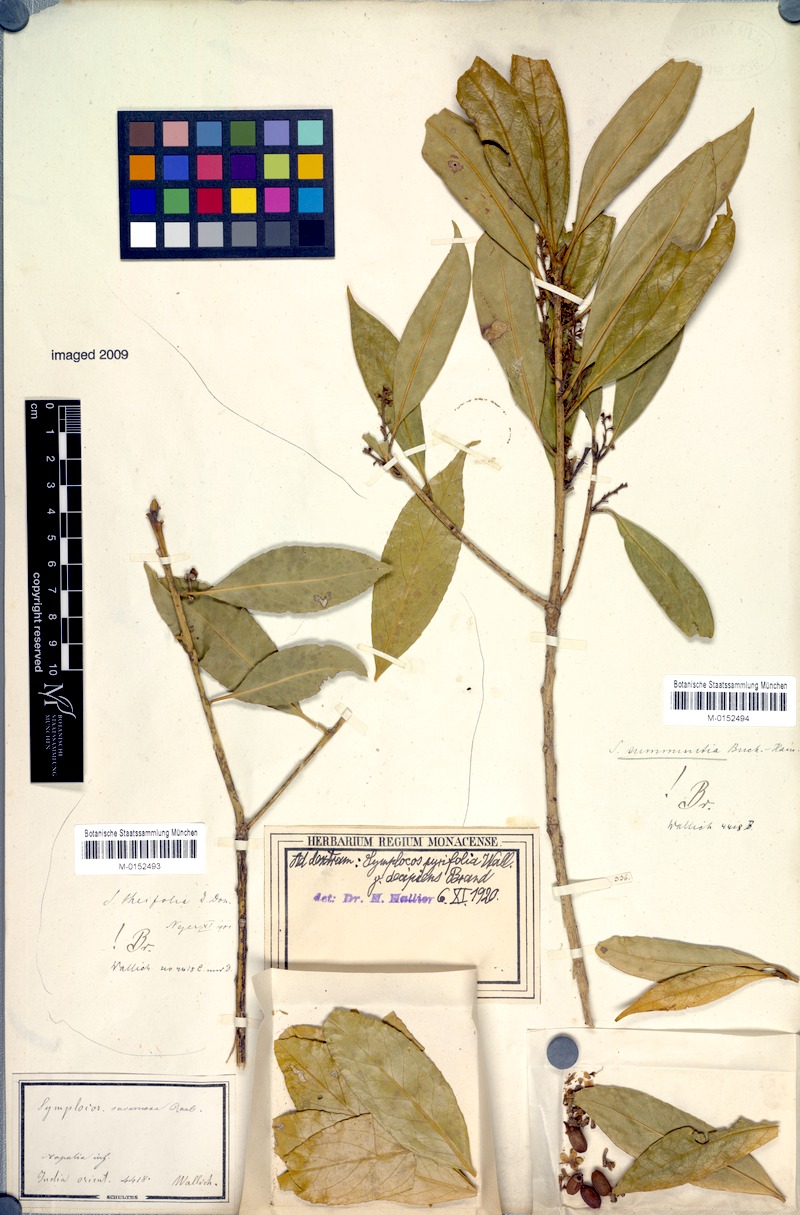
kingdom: Plantae
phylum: Tracheophyta
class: Magnoliopsida
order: Ericales
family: Symplocaceae
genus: Symplocos
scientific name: Symplocos pyrifolia
